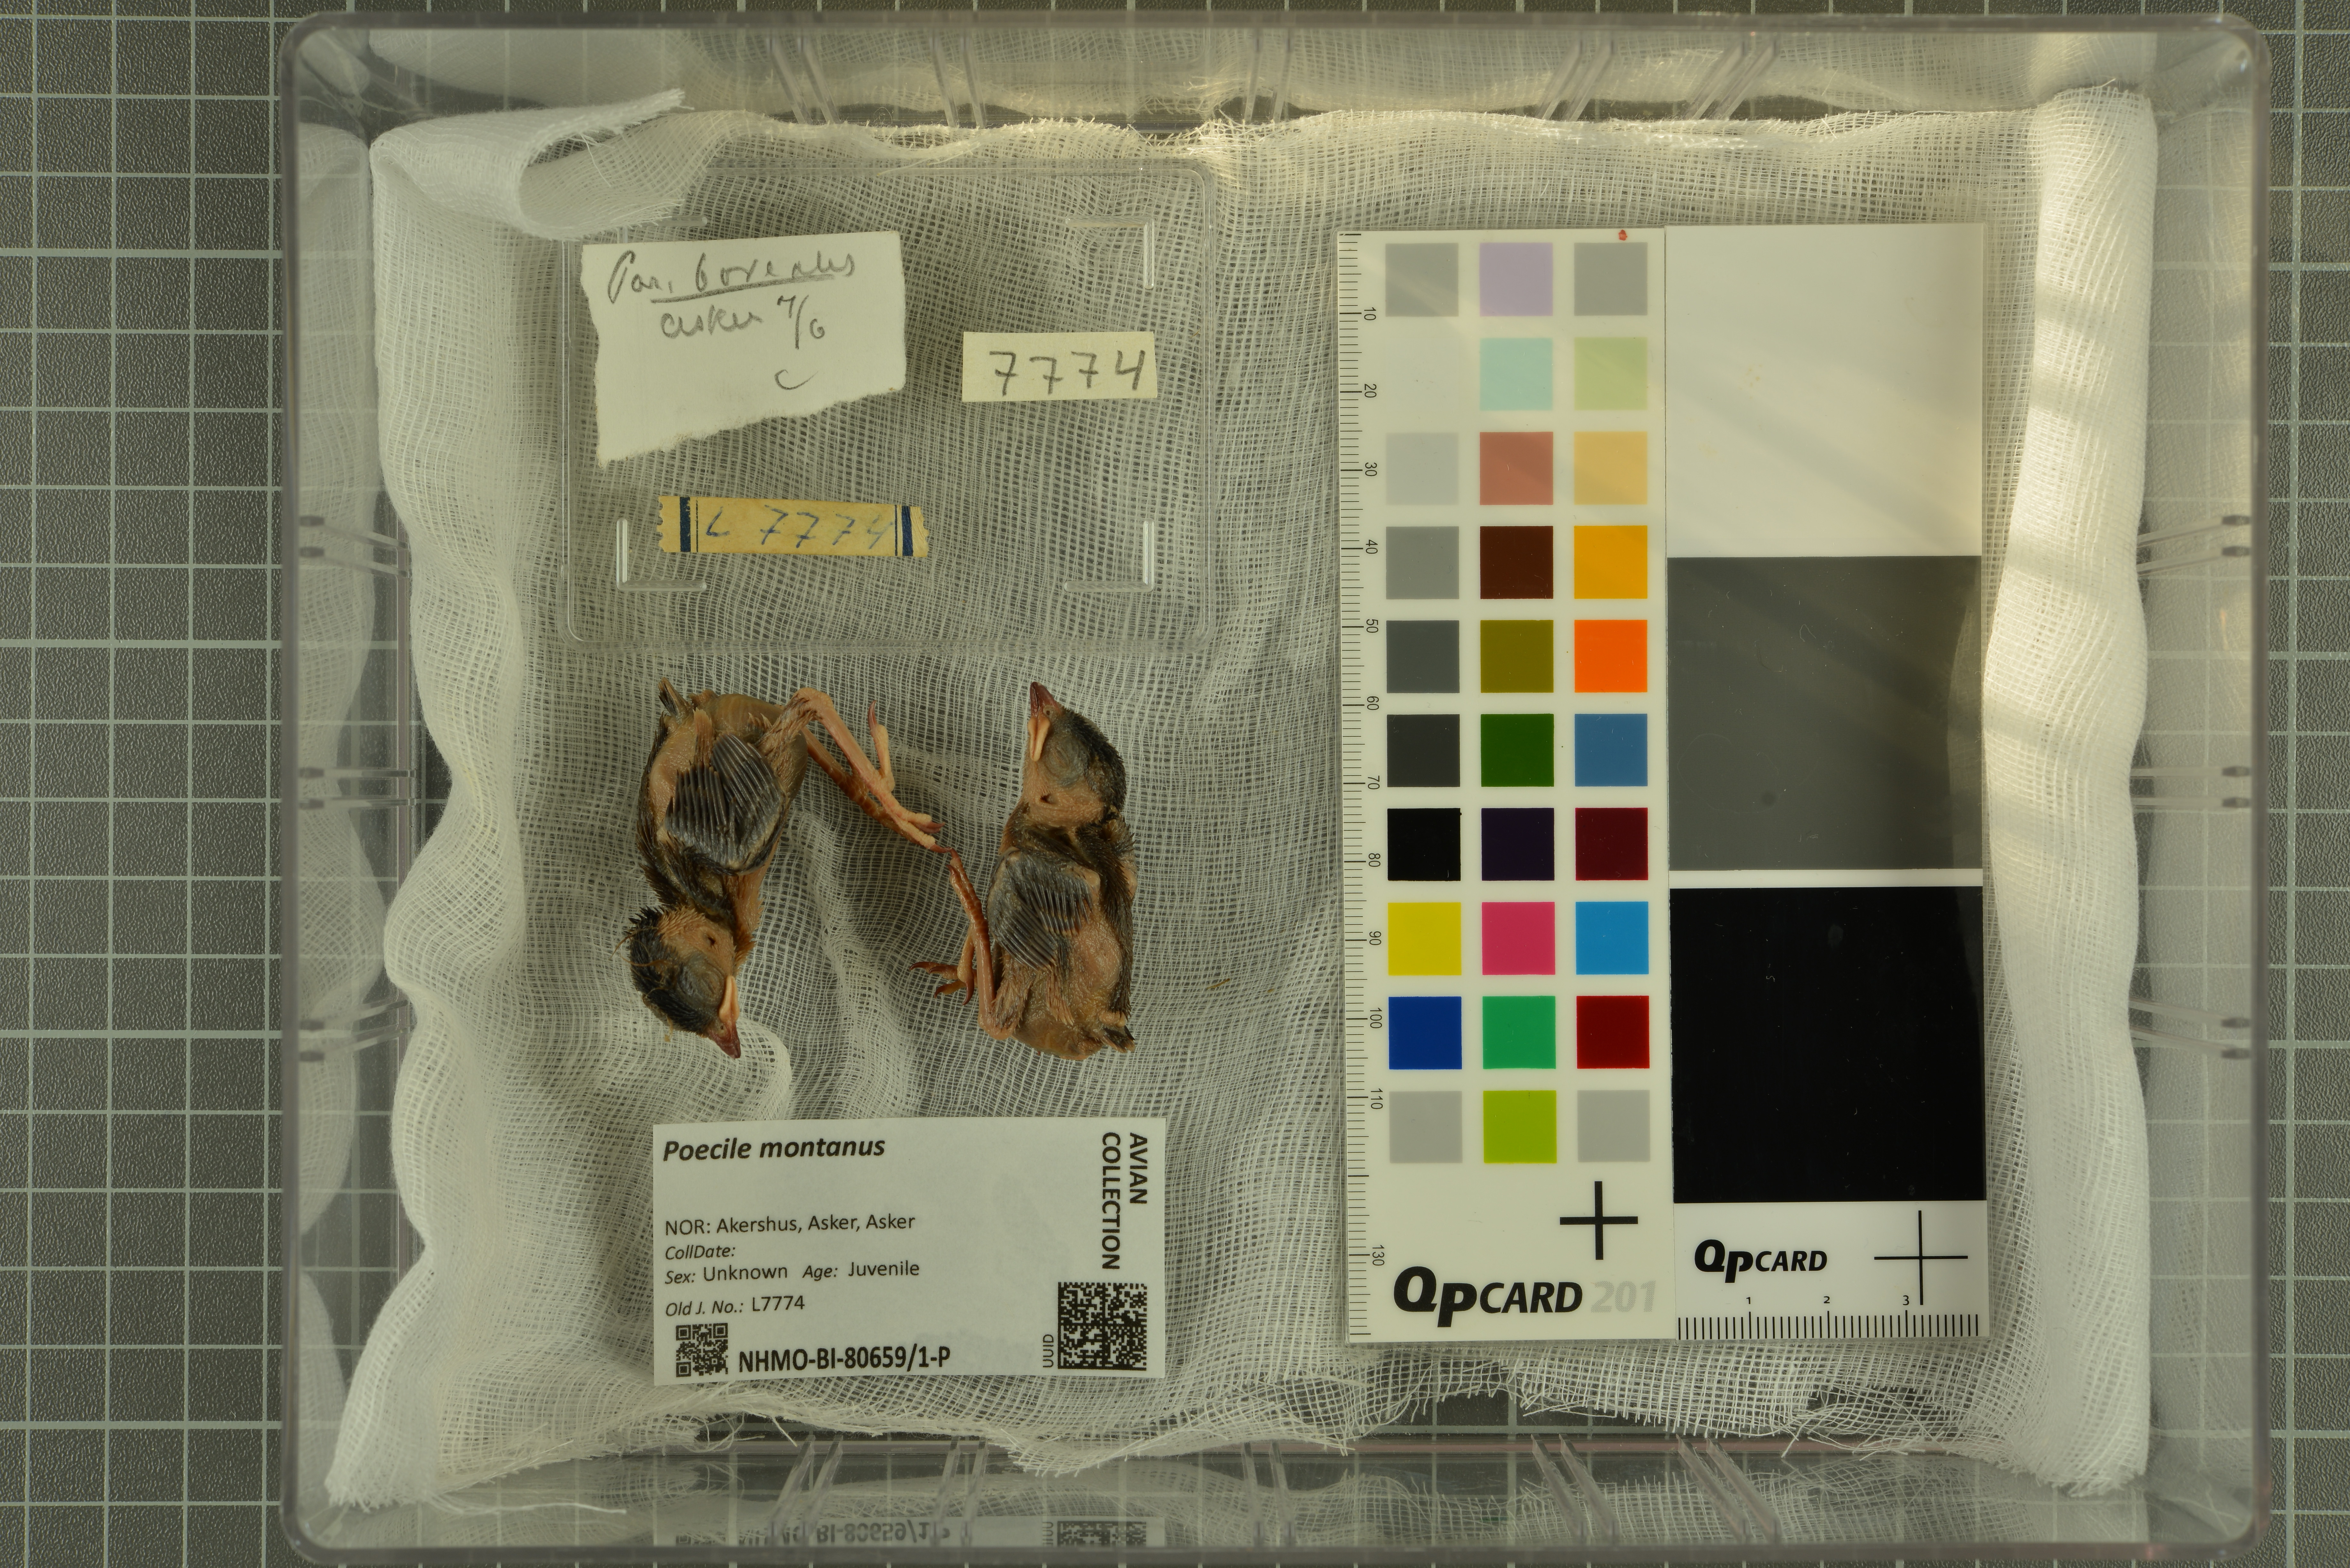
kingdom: Animalia
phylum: Chordata
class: Aves
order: Passeriformes
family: Paridae
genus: Poecile
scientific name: Poecile montanus
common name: Willow tit
